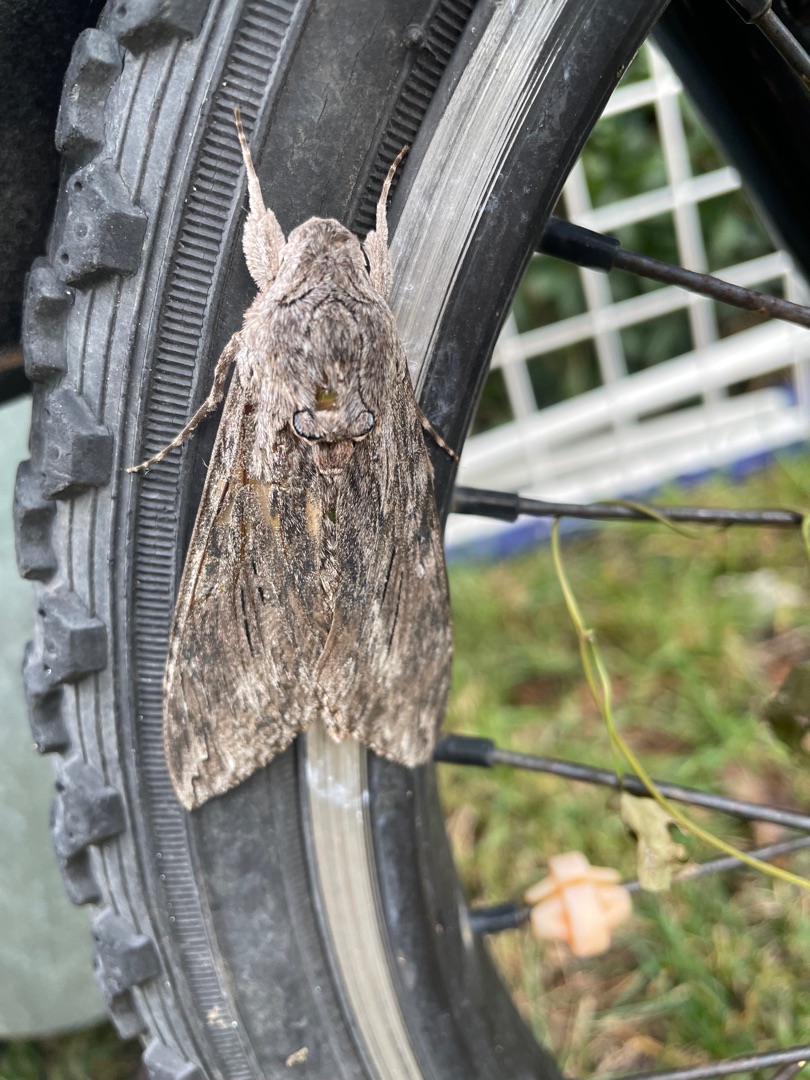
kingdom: Animalia
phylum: Arthropoda
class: Insecta
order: Lepidoptera
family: Sphingidae
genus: Agrius
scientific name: Agrius convolvuli
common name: Snerlesværmer
